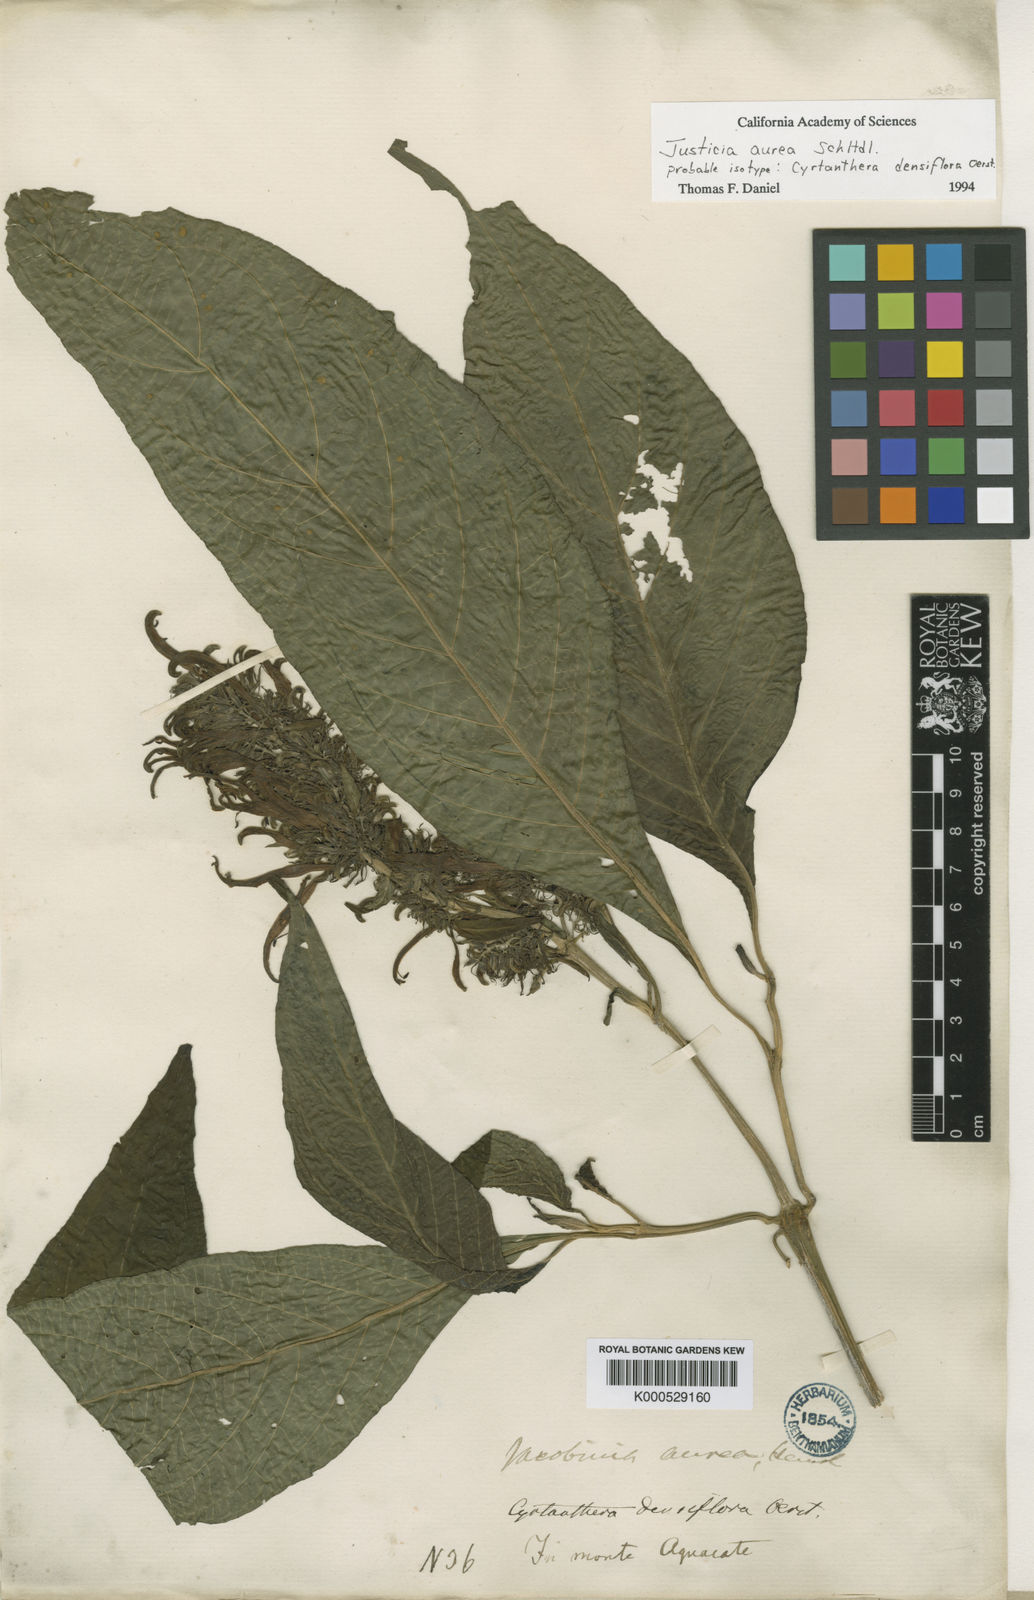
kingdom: Plantae
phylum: Tracheophyta
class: Magnoliopsida
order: Lamiales
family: Acanthaceae
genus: Justicia
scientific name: Justicia aurea
